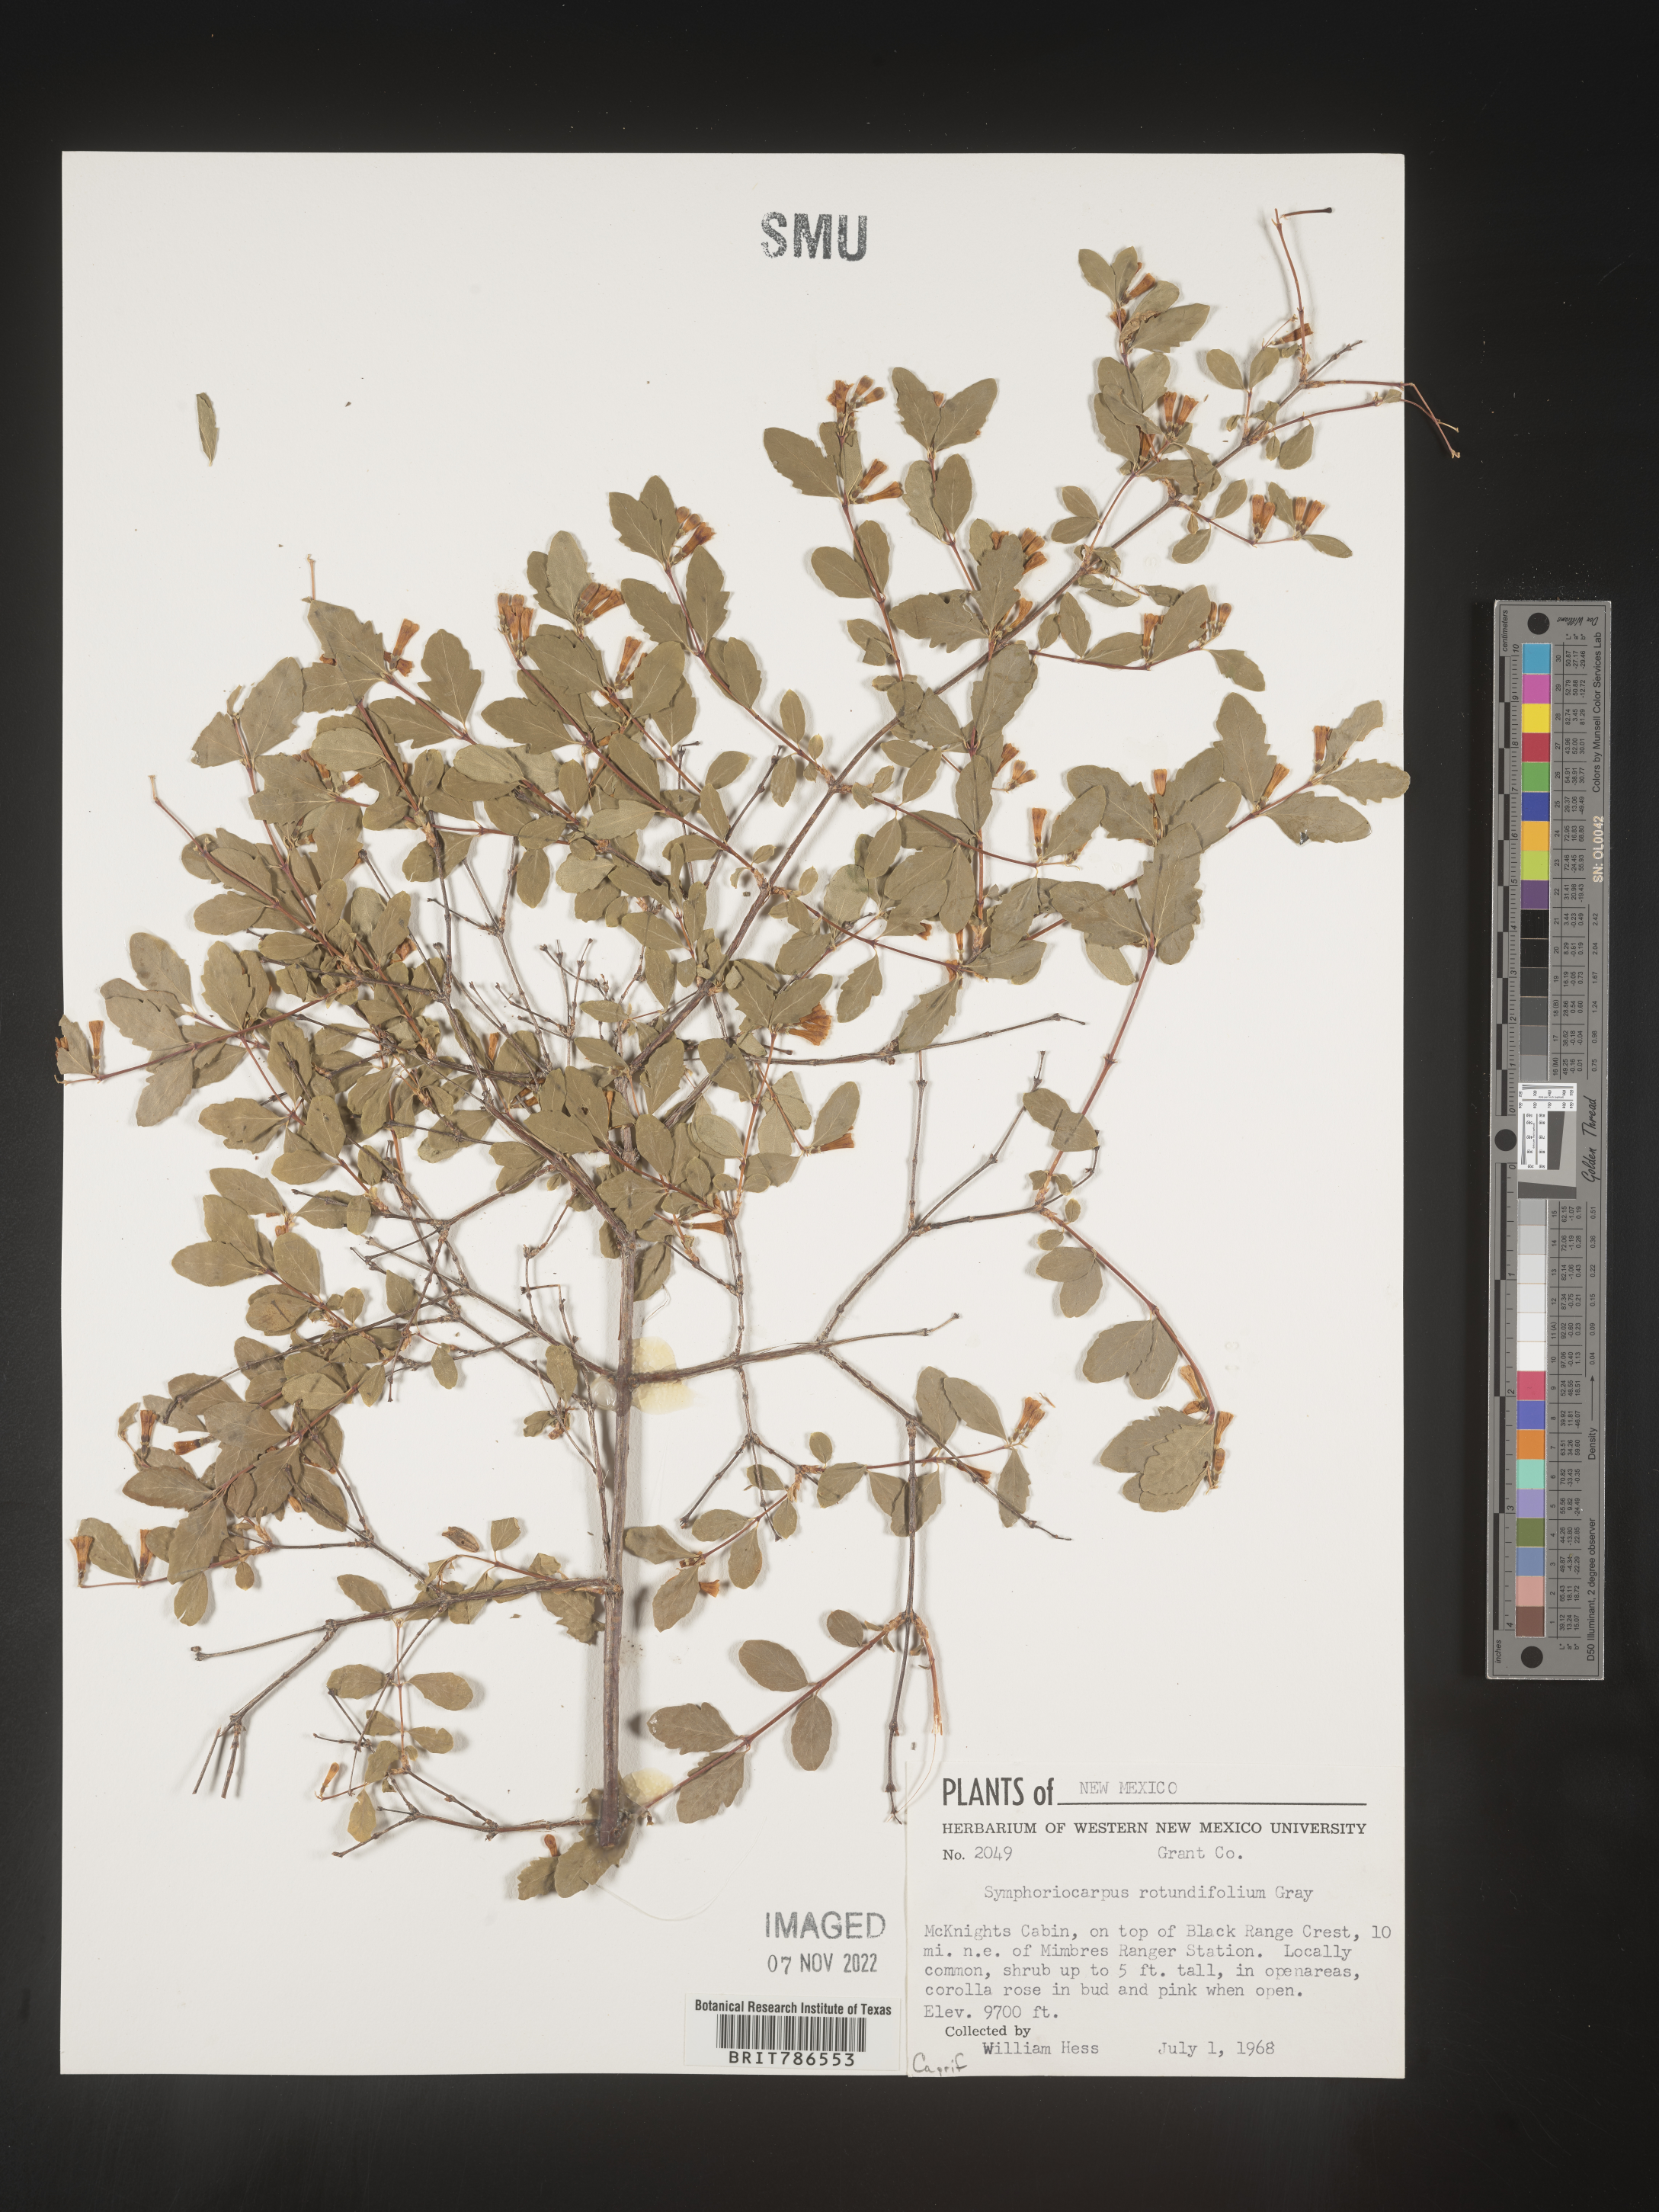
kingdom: Plantae
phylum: Tracheophyta
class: Magnoliopsida
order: Dipsacales
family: Caprifoliaceae
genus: Symphoricarpos
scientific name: Symphoricarpos
